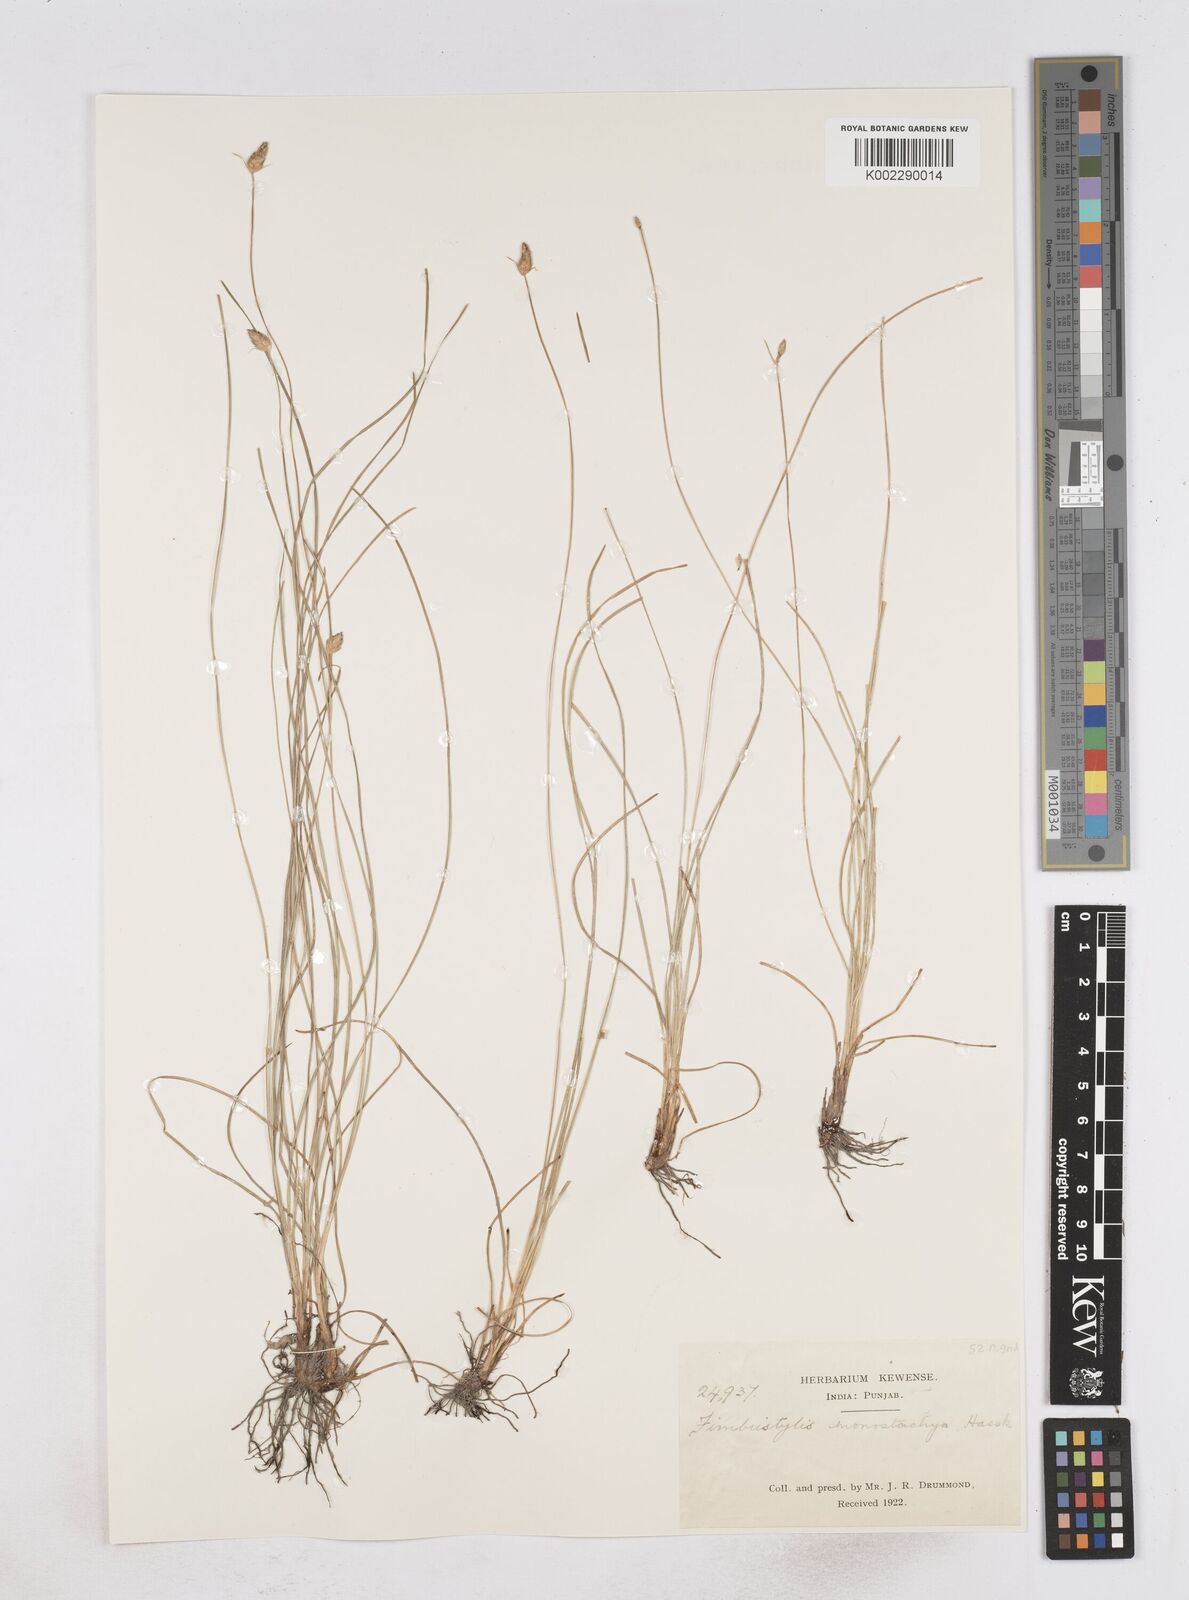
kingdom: Plantae
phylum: Tracheophyta
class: Liliopsida
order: Poales
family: Cyperaceae
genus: Abildgaardia
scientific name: Abildgaardia ovata
